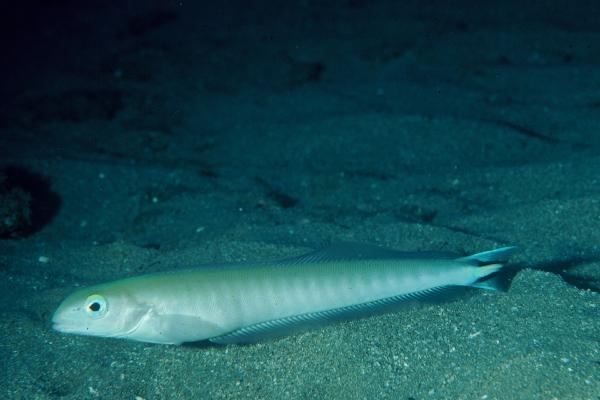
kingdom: Animalia
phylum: Chordata
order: Perciformes
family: Malacanthidae
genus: Malacanthus
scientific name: Malacanthus brevirostris
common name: Flagtail blanquillo
